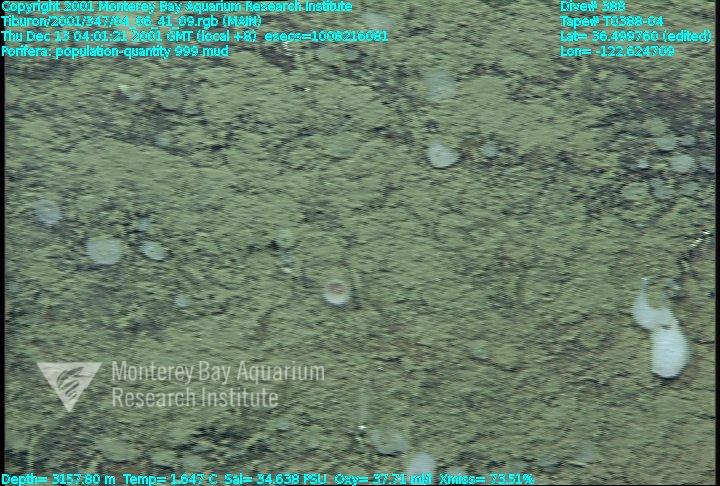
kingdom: Animalia
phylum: Porifera
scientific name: Porifera
